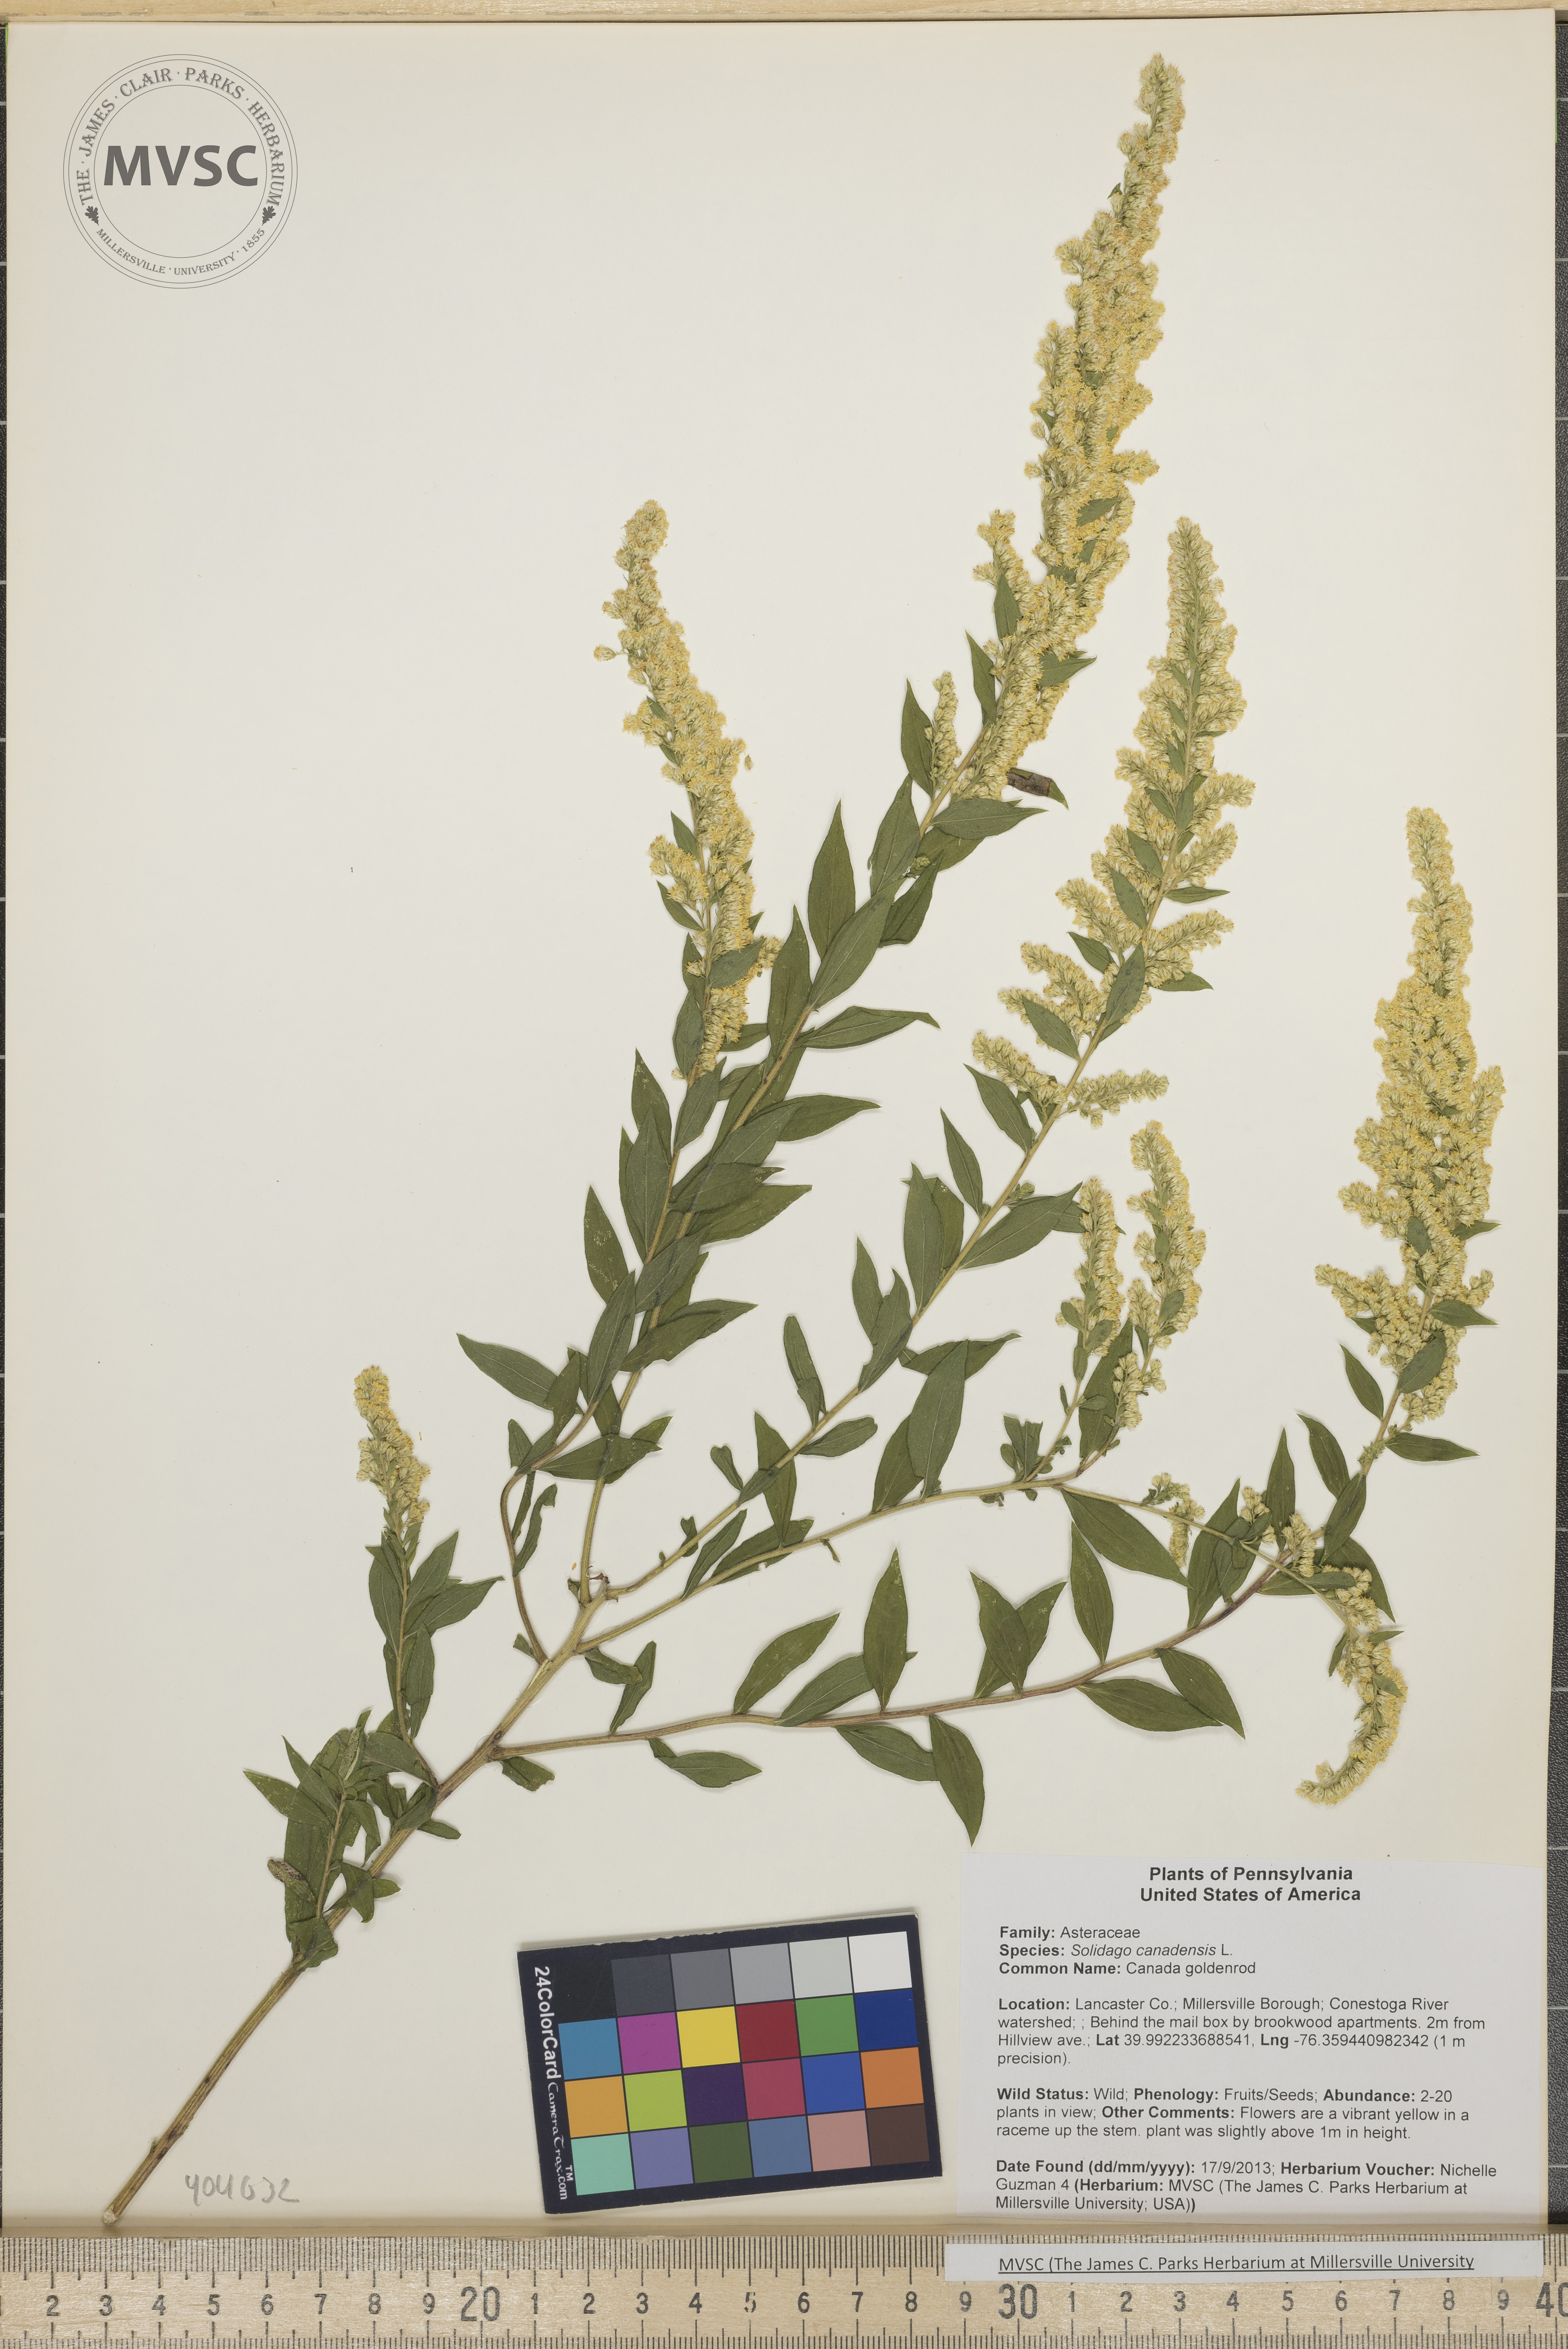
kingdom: Plantae
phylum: Tracheophyta
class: Magnoliopsida
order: Asterales
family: Asteraceae
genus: Solidago
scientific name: Solidago altissima
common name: Late goldenrod
